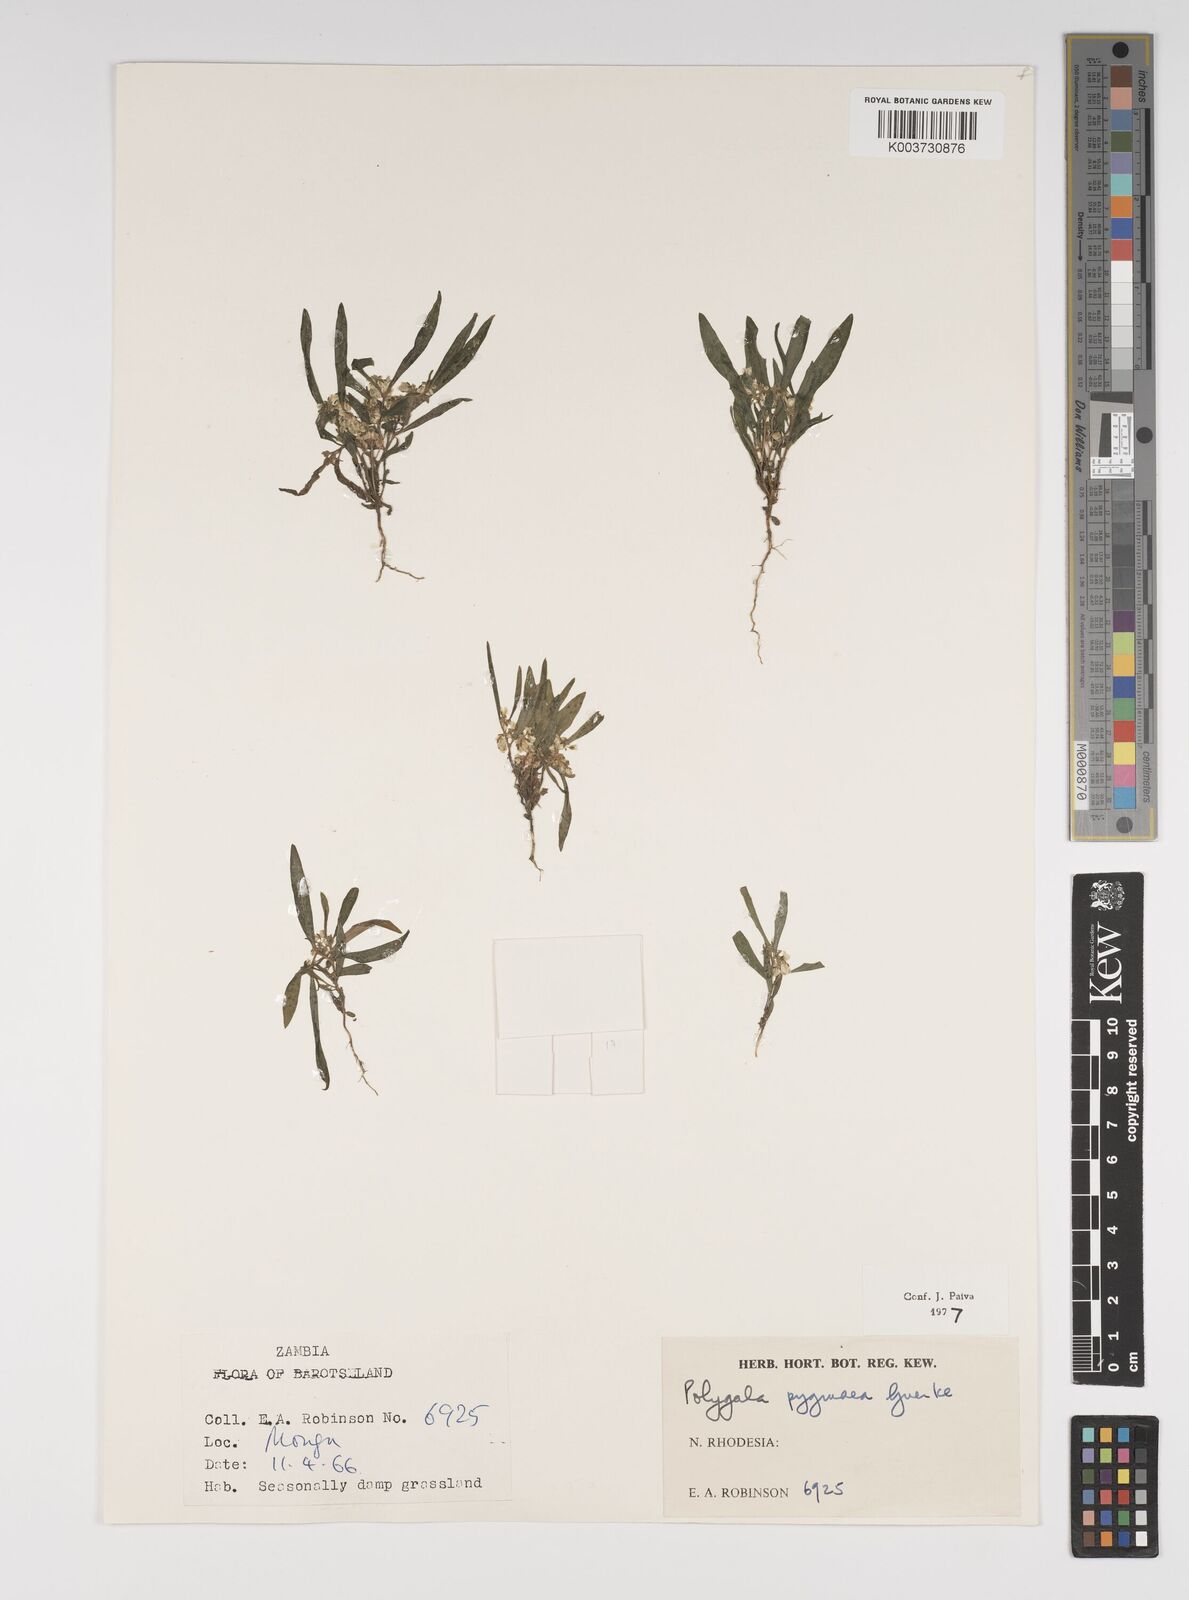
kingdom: Plantae
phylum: Tracheophyta
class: Magnoliopsida
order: Fabales
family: Polygalaceae
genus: Polygala
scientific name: Polygala welwitschii
